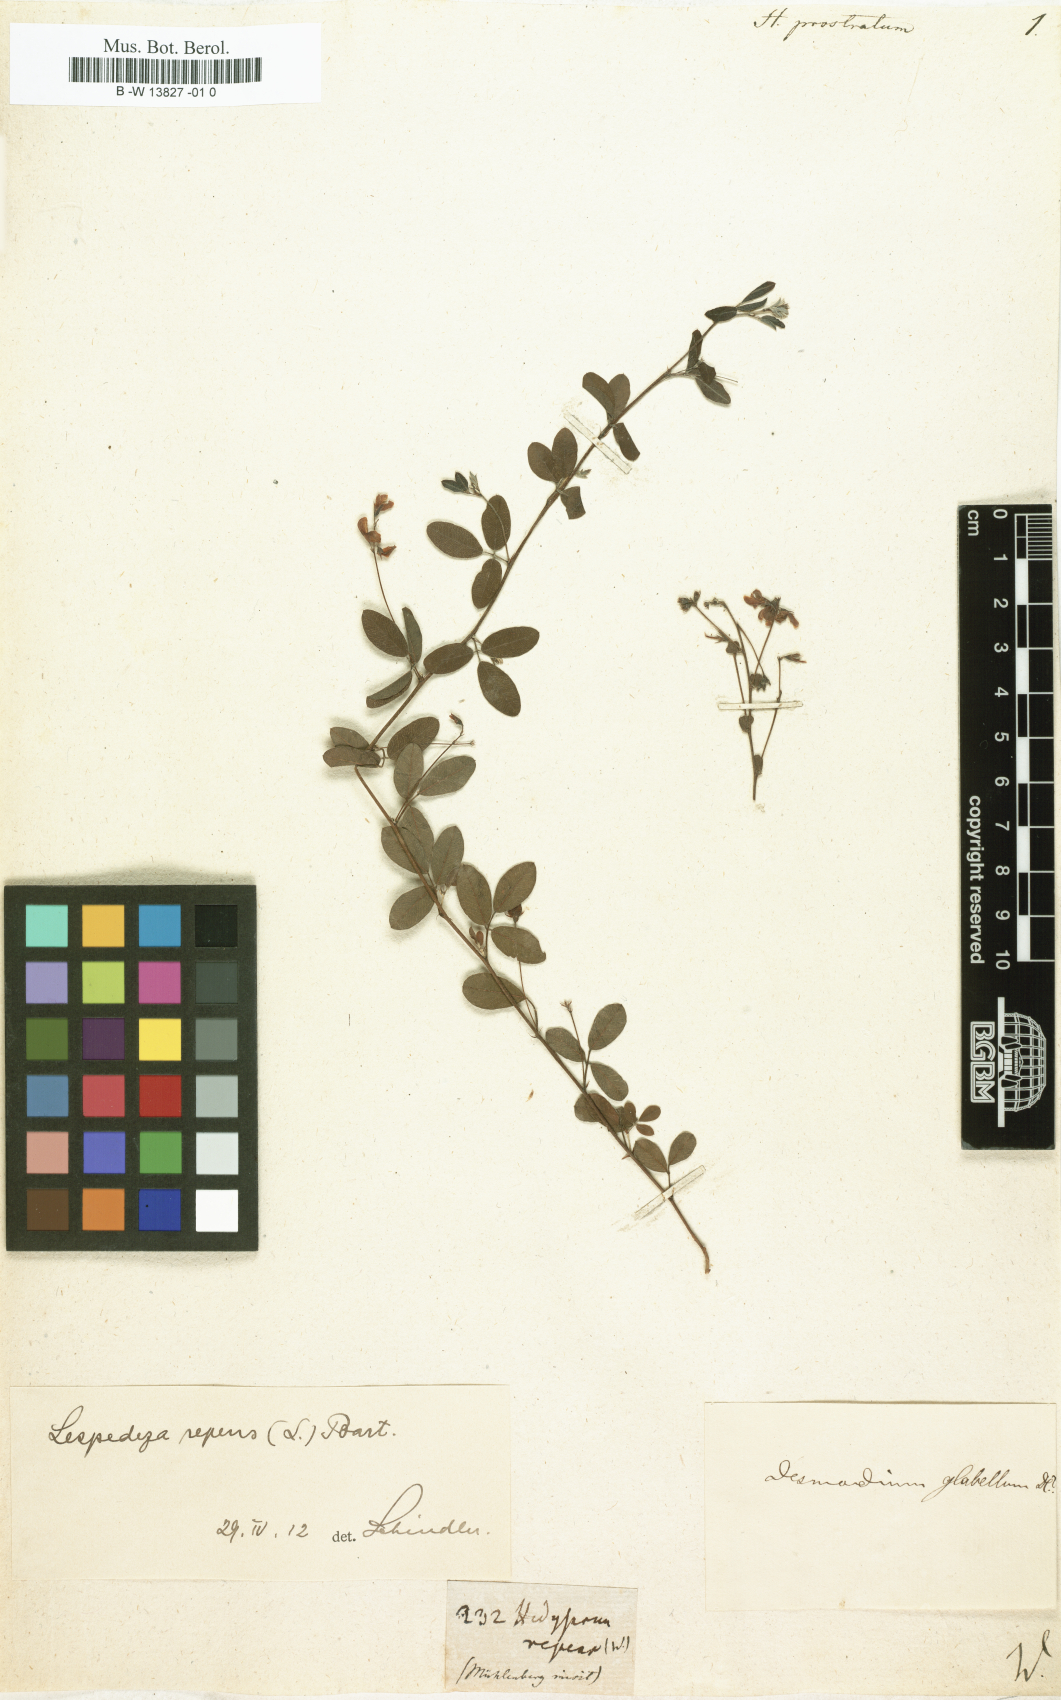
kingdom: Plantae
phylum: Tracheophyta
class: Magnoliopsida
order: Fabales
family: Fabaceae
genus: Indigofera
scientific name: Indigofera linnaei
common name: Nine-leaf indigo
